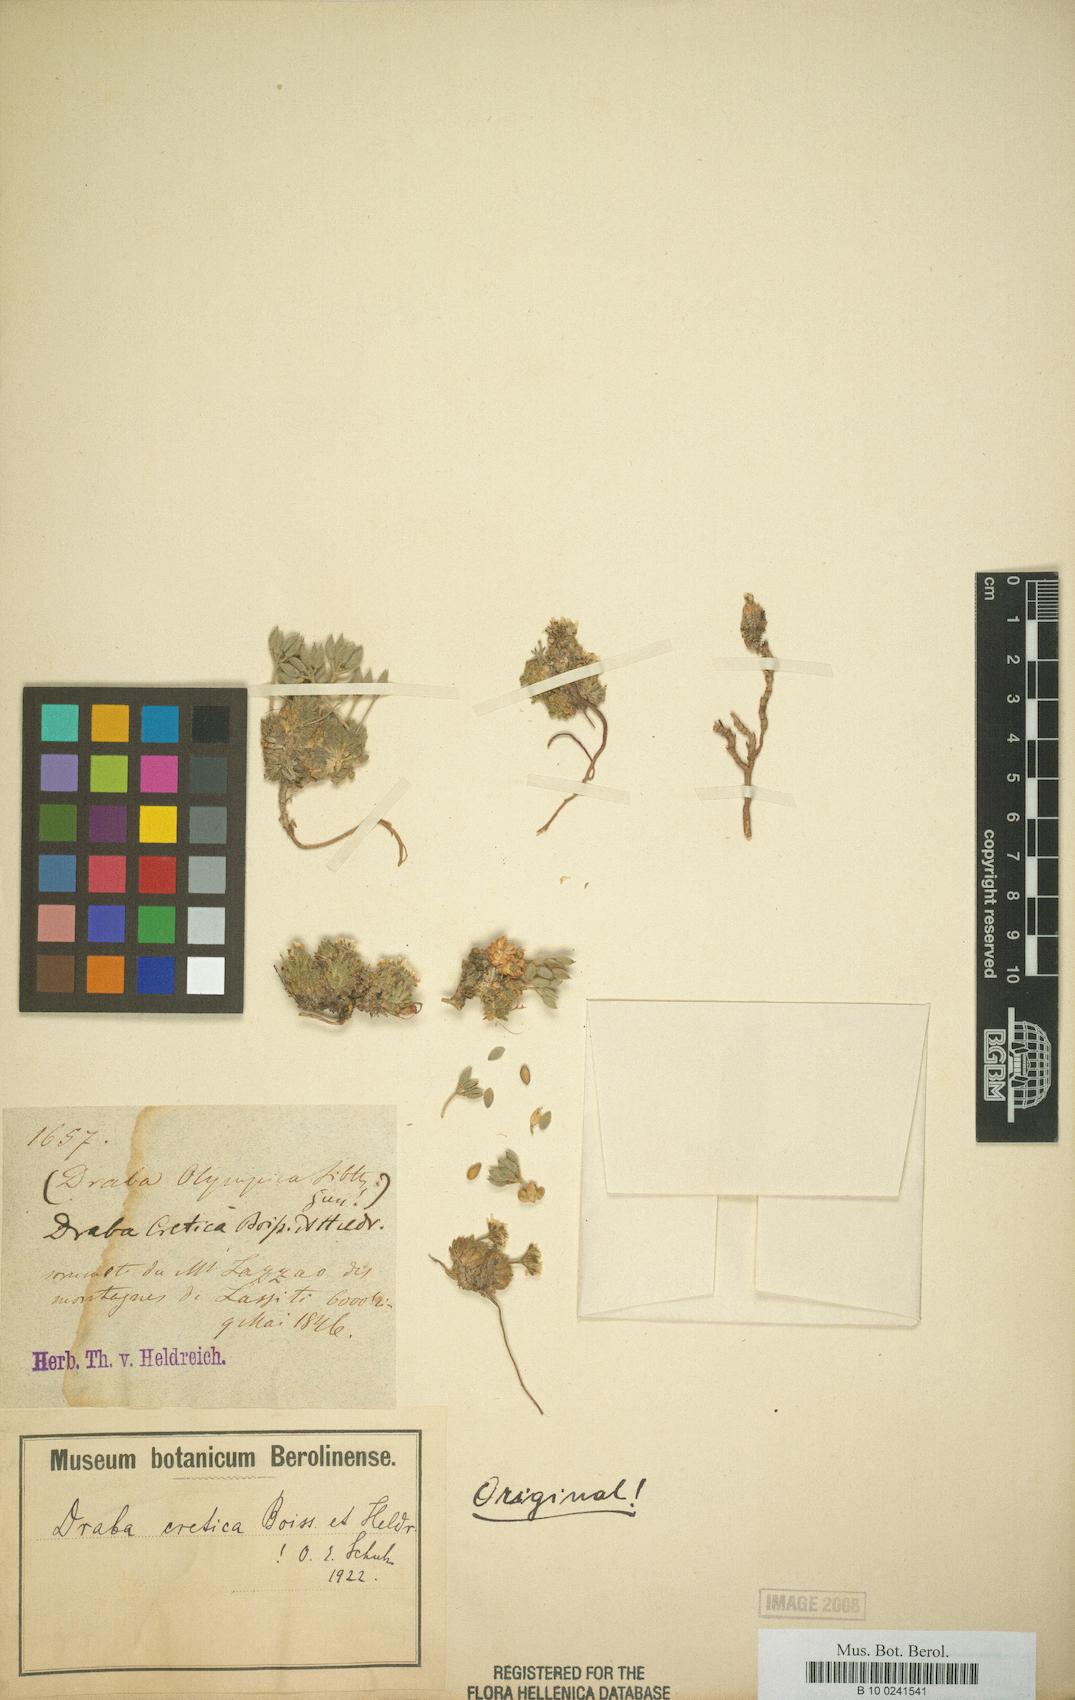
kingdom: Plantae
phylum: Tracheophyta
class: Magnoliopsida
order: Brassicales
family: Brassicaceae
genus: Draba
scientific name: Draba cretica
